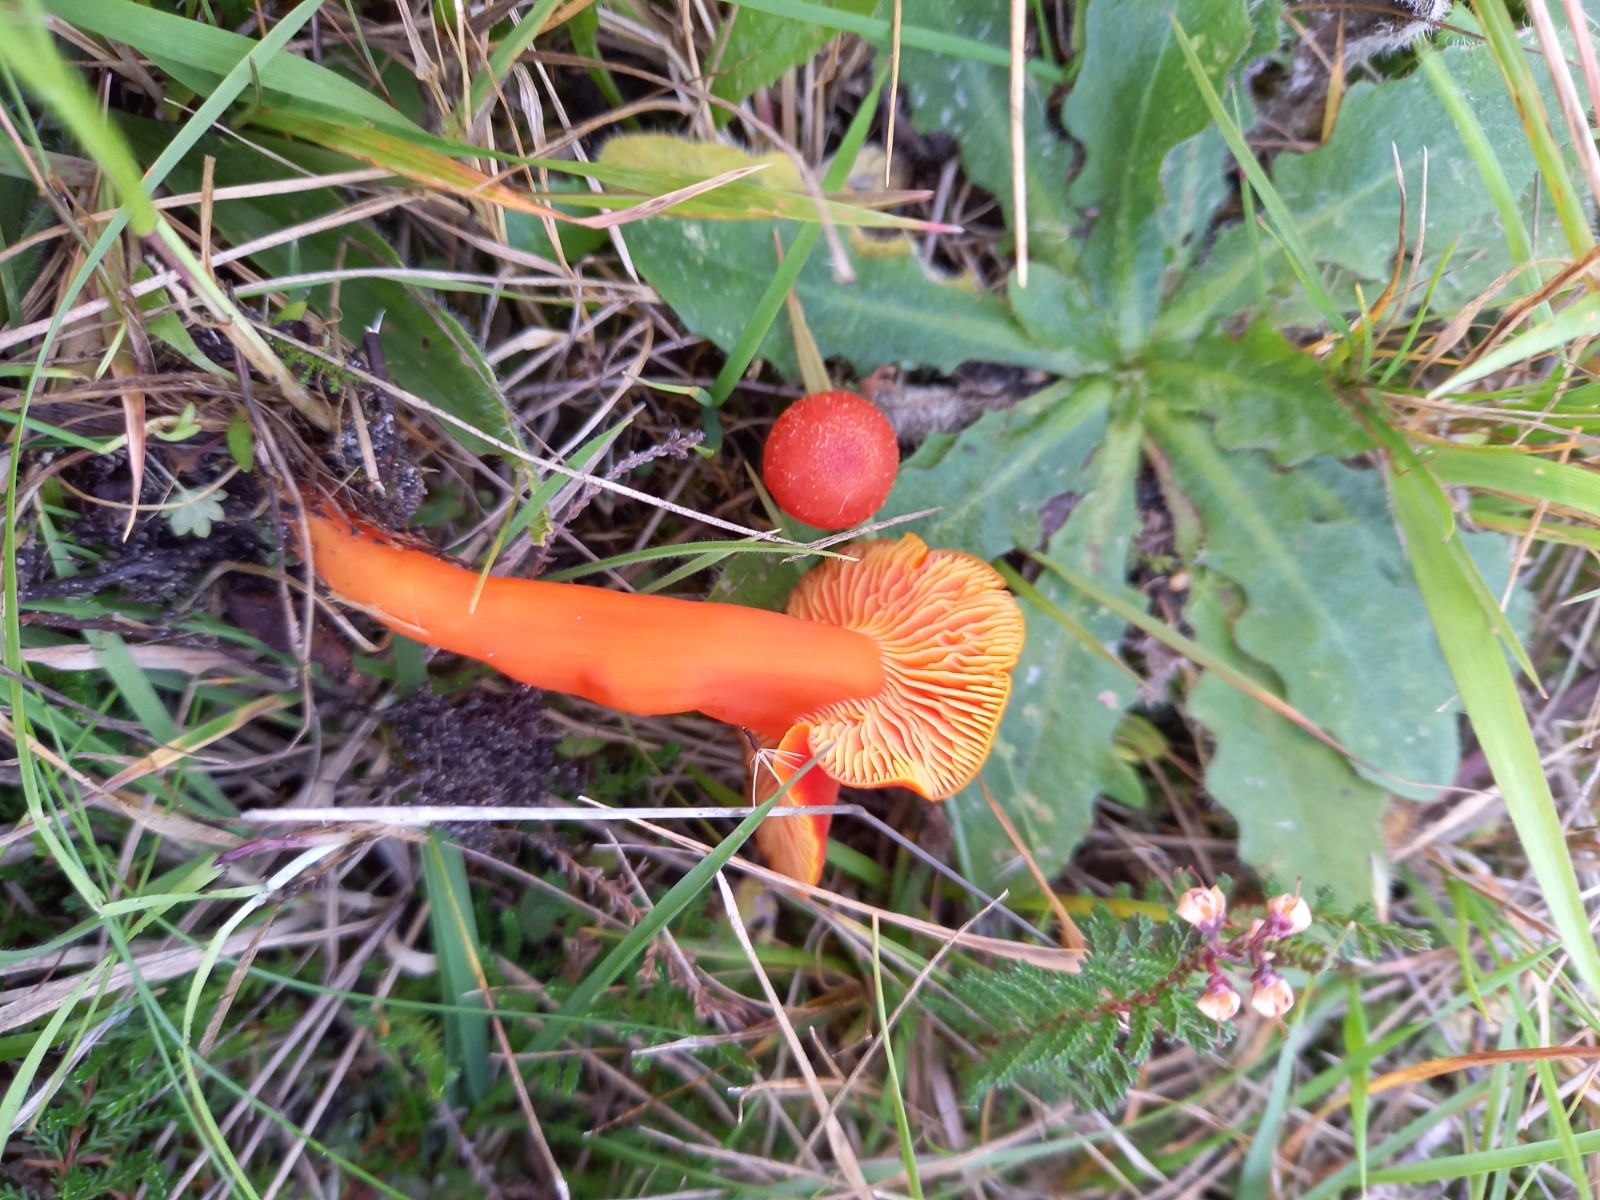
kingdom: Fungi
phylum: Basidiomycota
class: Agaricomycetes
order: Agaricales
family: Hygrophoraceae
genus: Hygrocybe
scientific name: Hygrocybe miniata
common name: mønje-vokshat
